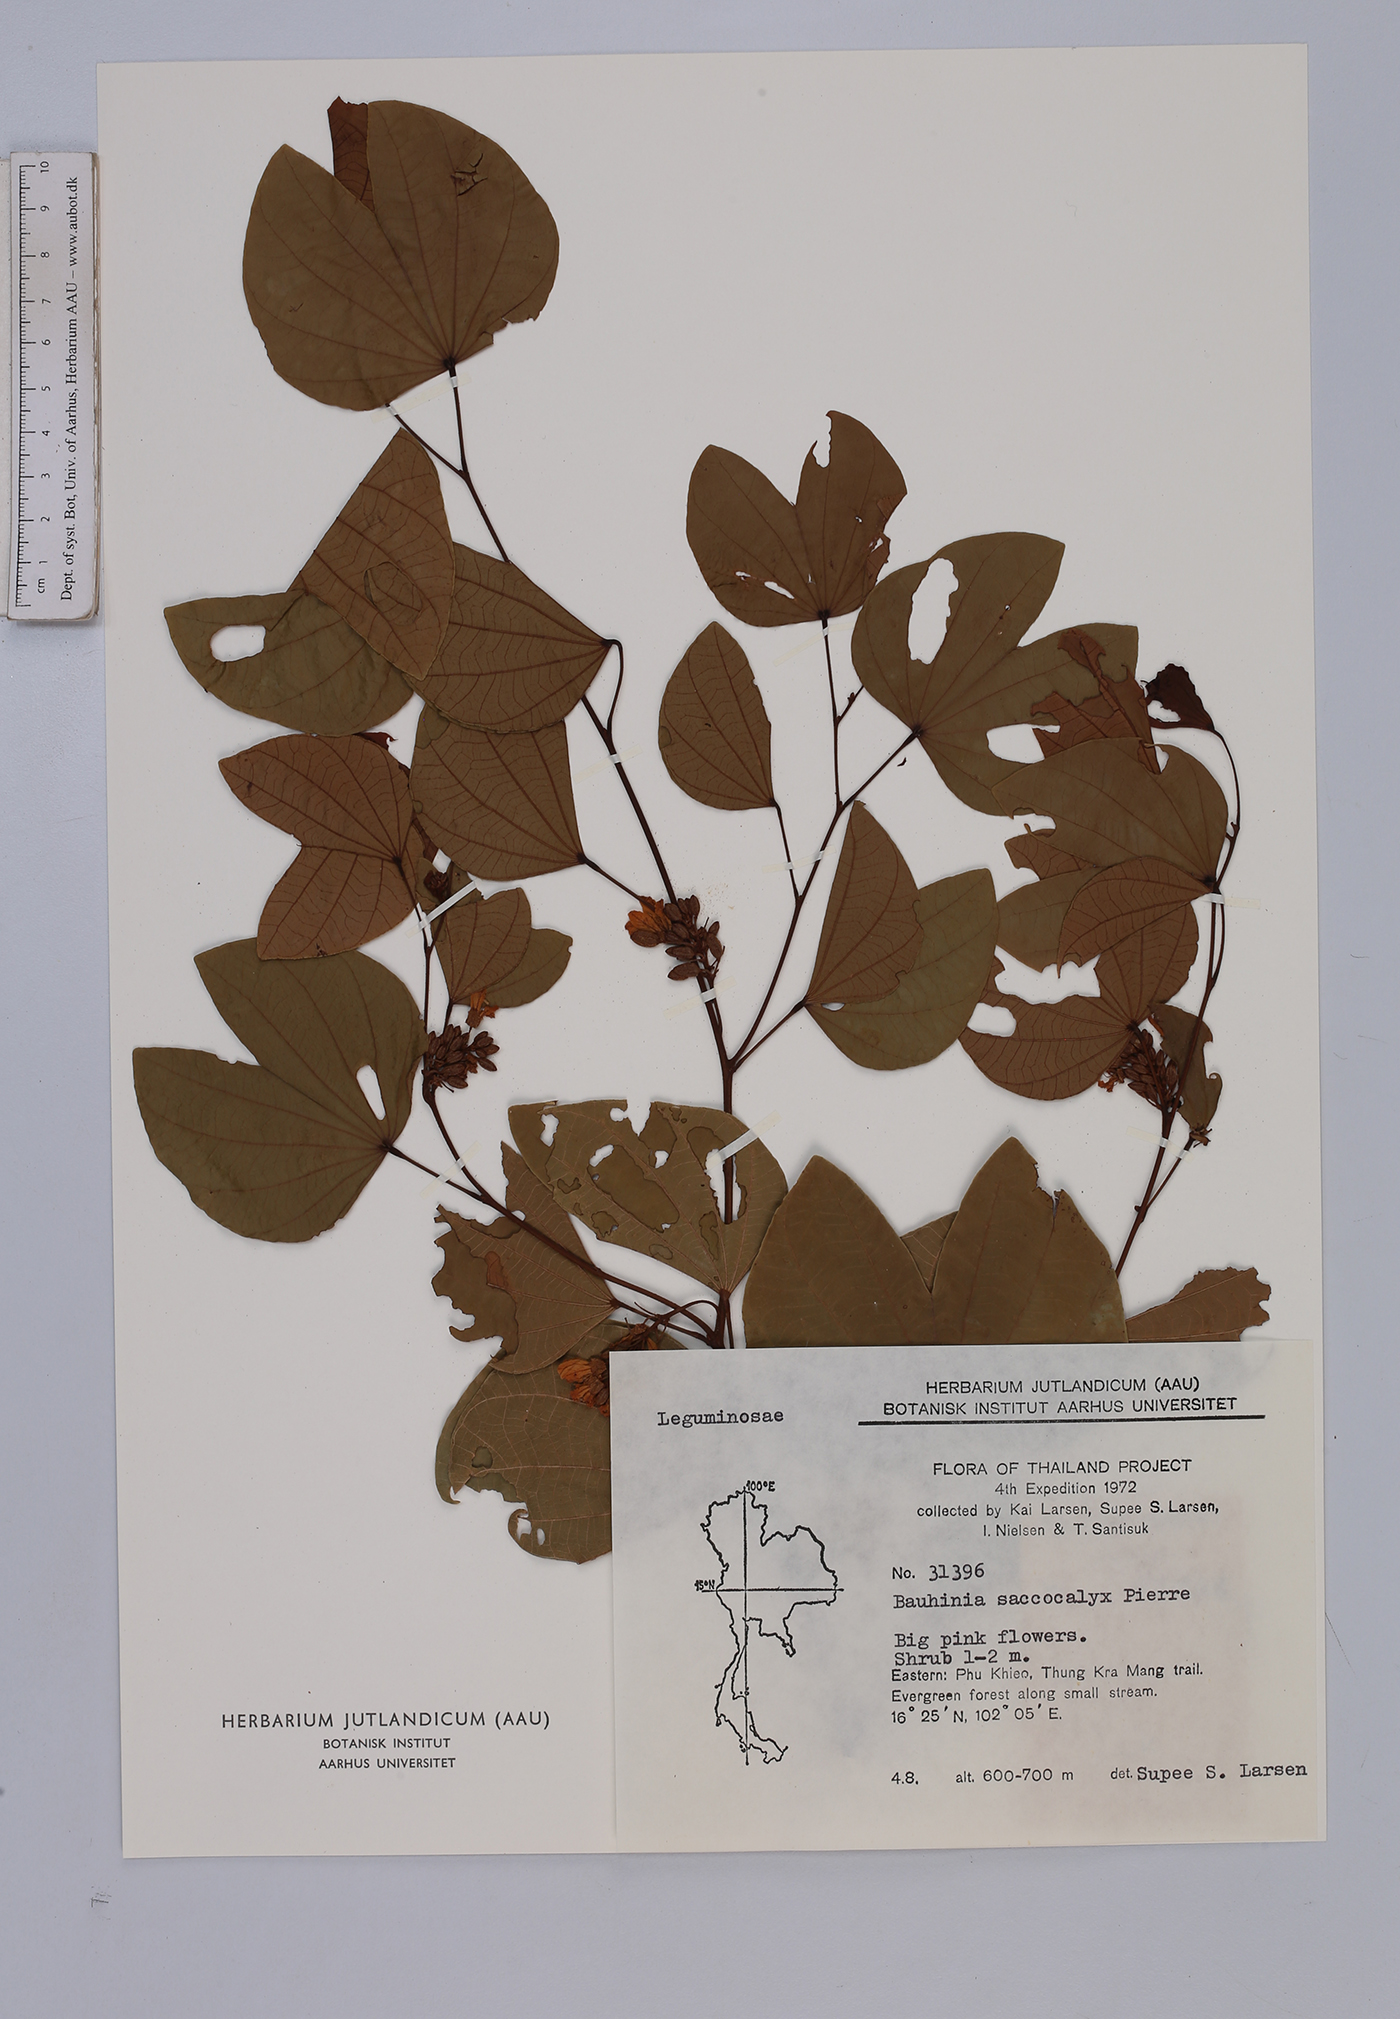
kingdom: Plantae
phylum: Tracheophyta
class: Magnoliopsida
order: Fabales
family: Fabaceae
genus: Bauhinia
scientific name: Bauhinia saccocalyx
